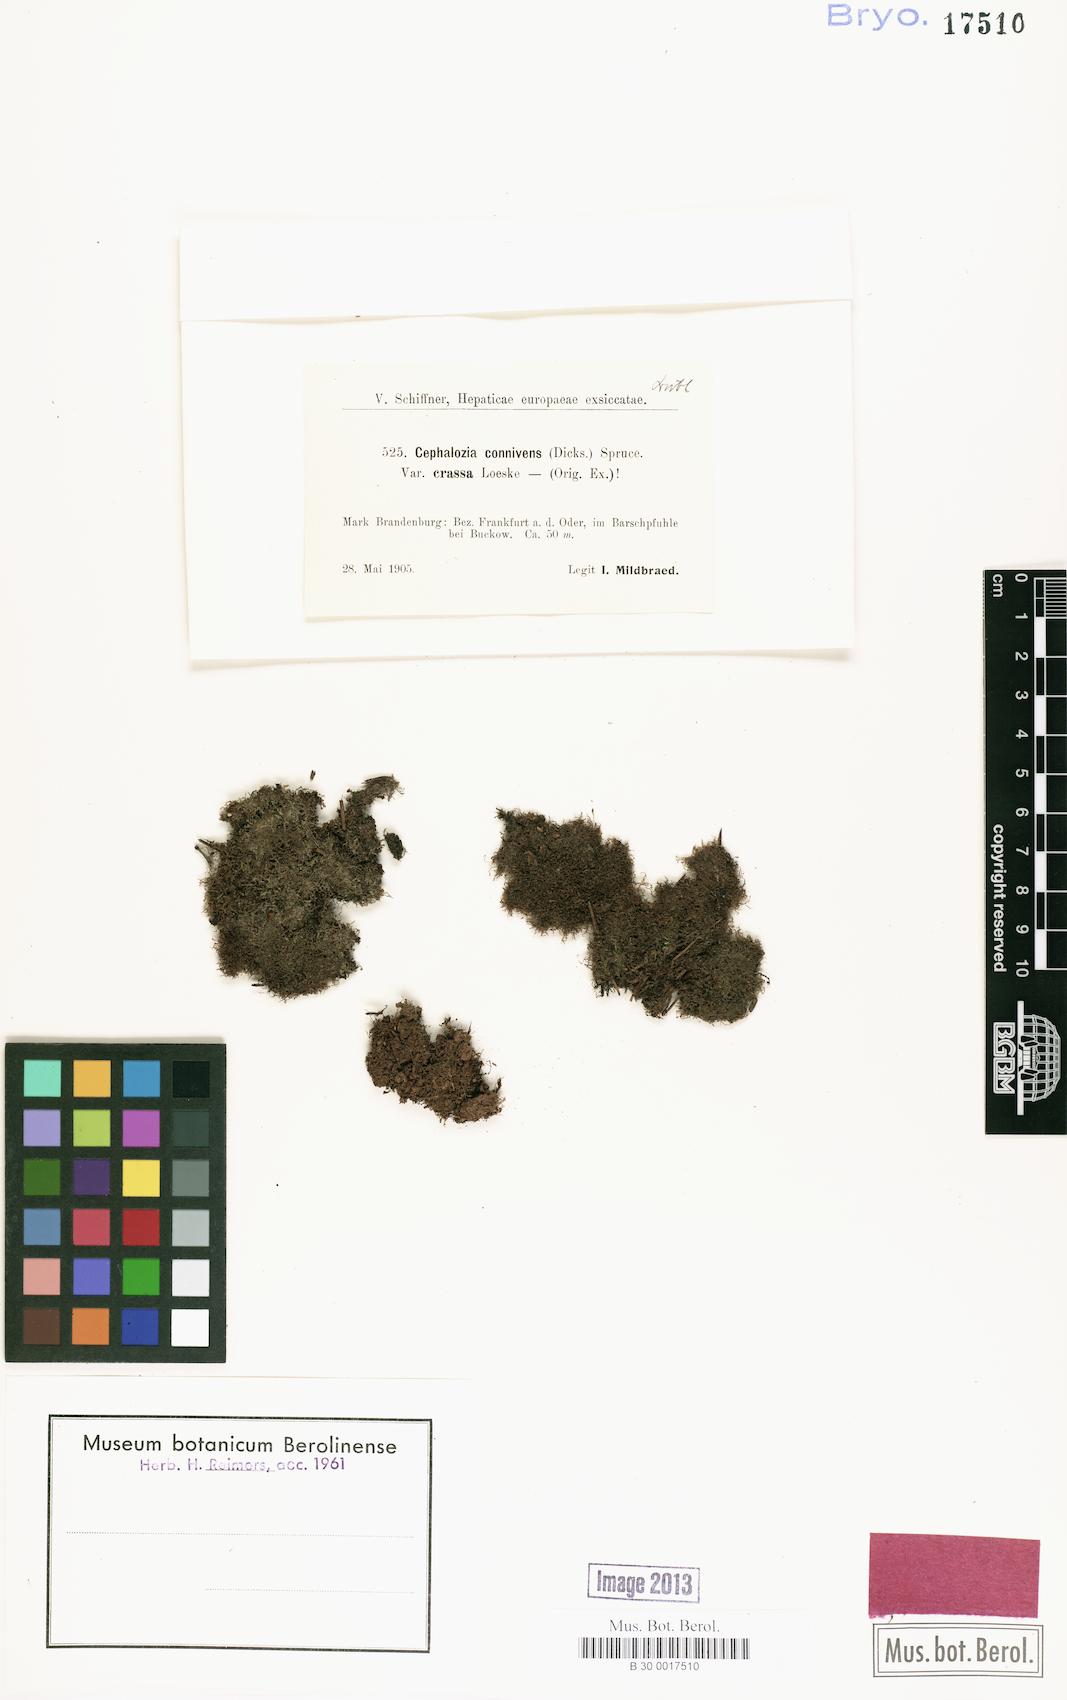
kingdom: Plantae
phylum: Marchantiophyta
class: Jungermanniopsida
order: Jungermanniales
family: Cephaloziaceae
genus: Fuscocephaloziopsis
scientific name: Fuscocephaloziopsis connivens
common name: Forcipated pincerwort
